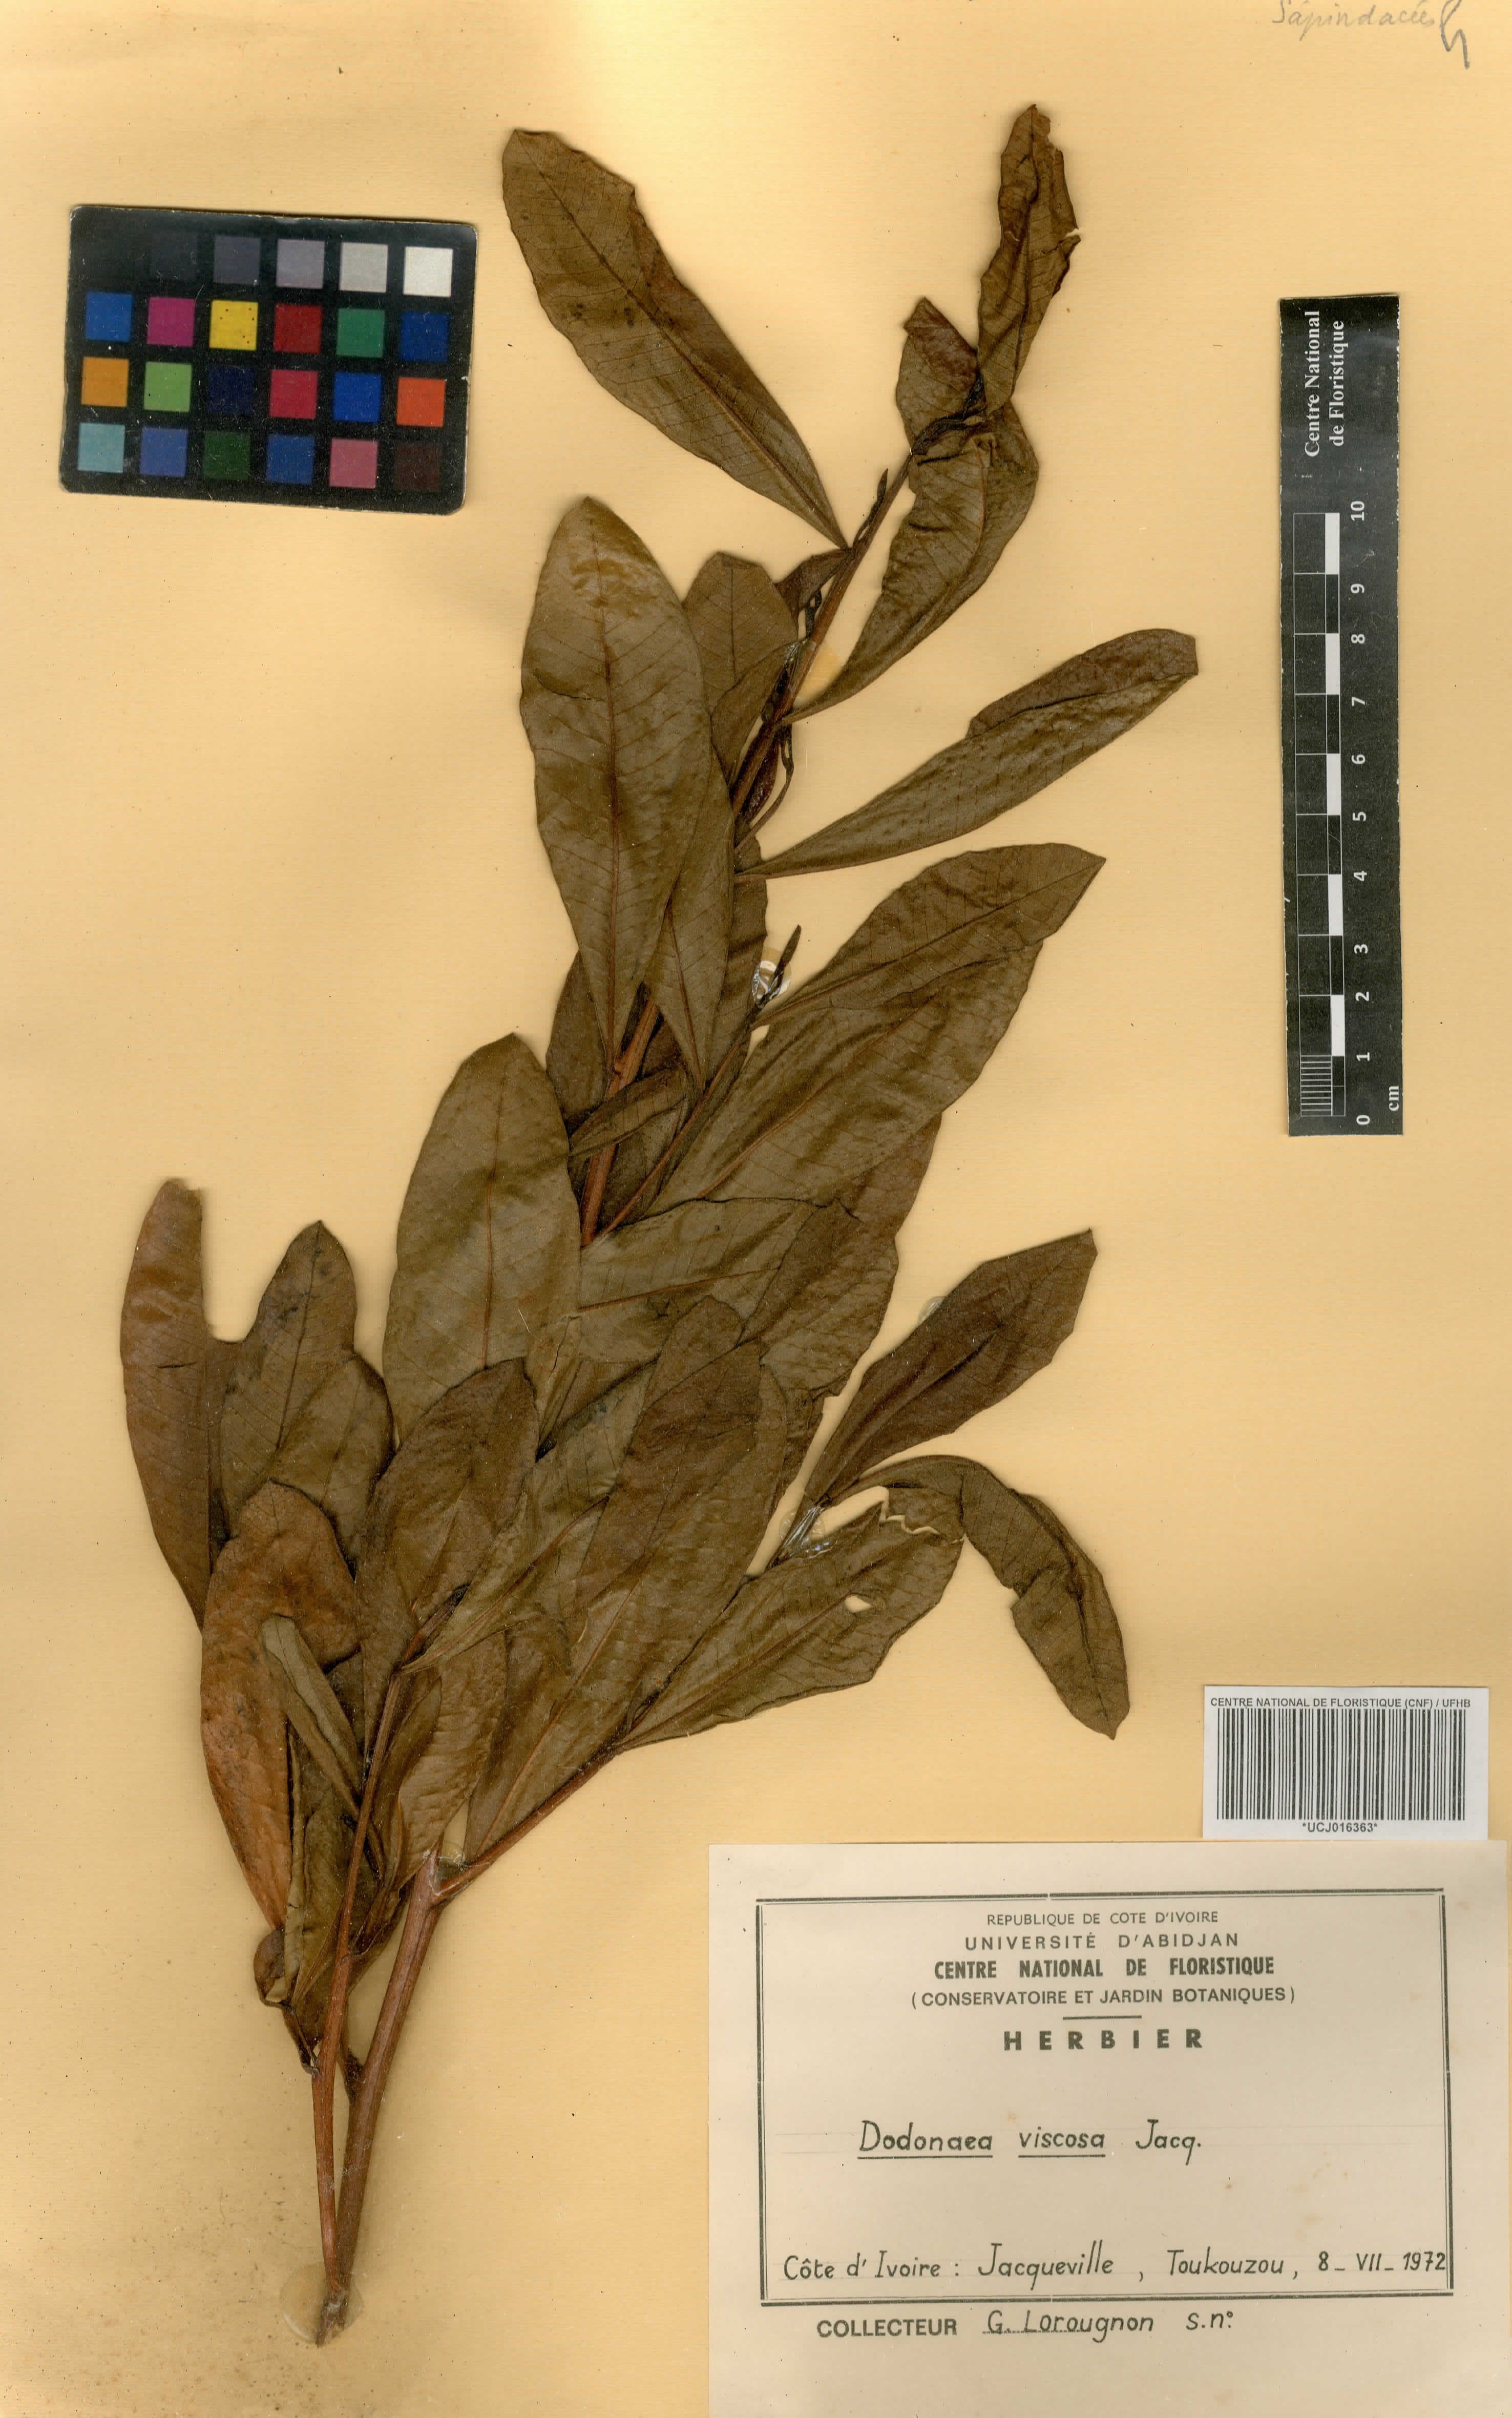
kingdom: Plantae
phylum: Tracheophyta
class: Magnoliopsida
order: Sapindales
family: Sapindaceae
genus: Dodonaea
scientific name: Dodonaea viscosa
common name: Hopbush
